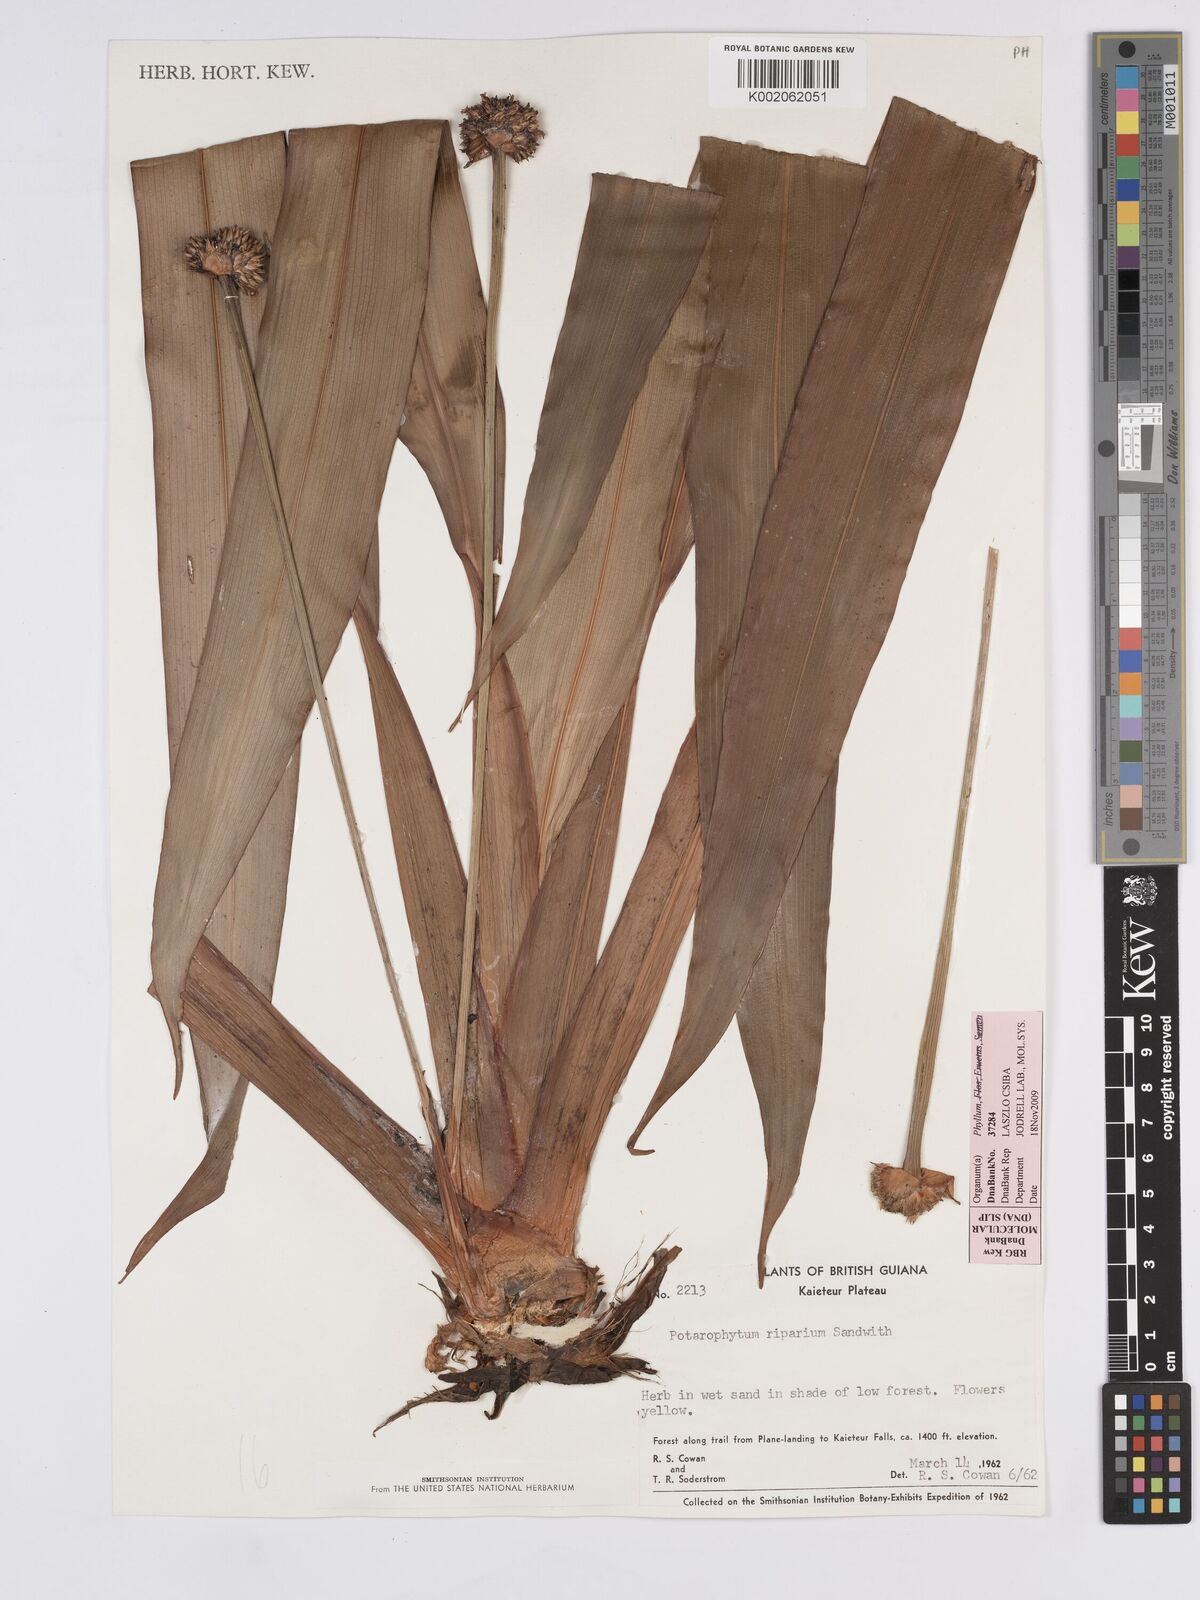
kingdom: Plantae
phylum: Tracheophyta
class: Liliopsida
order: Poales
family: Rapateaceae
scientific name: Rapateaceae
